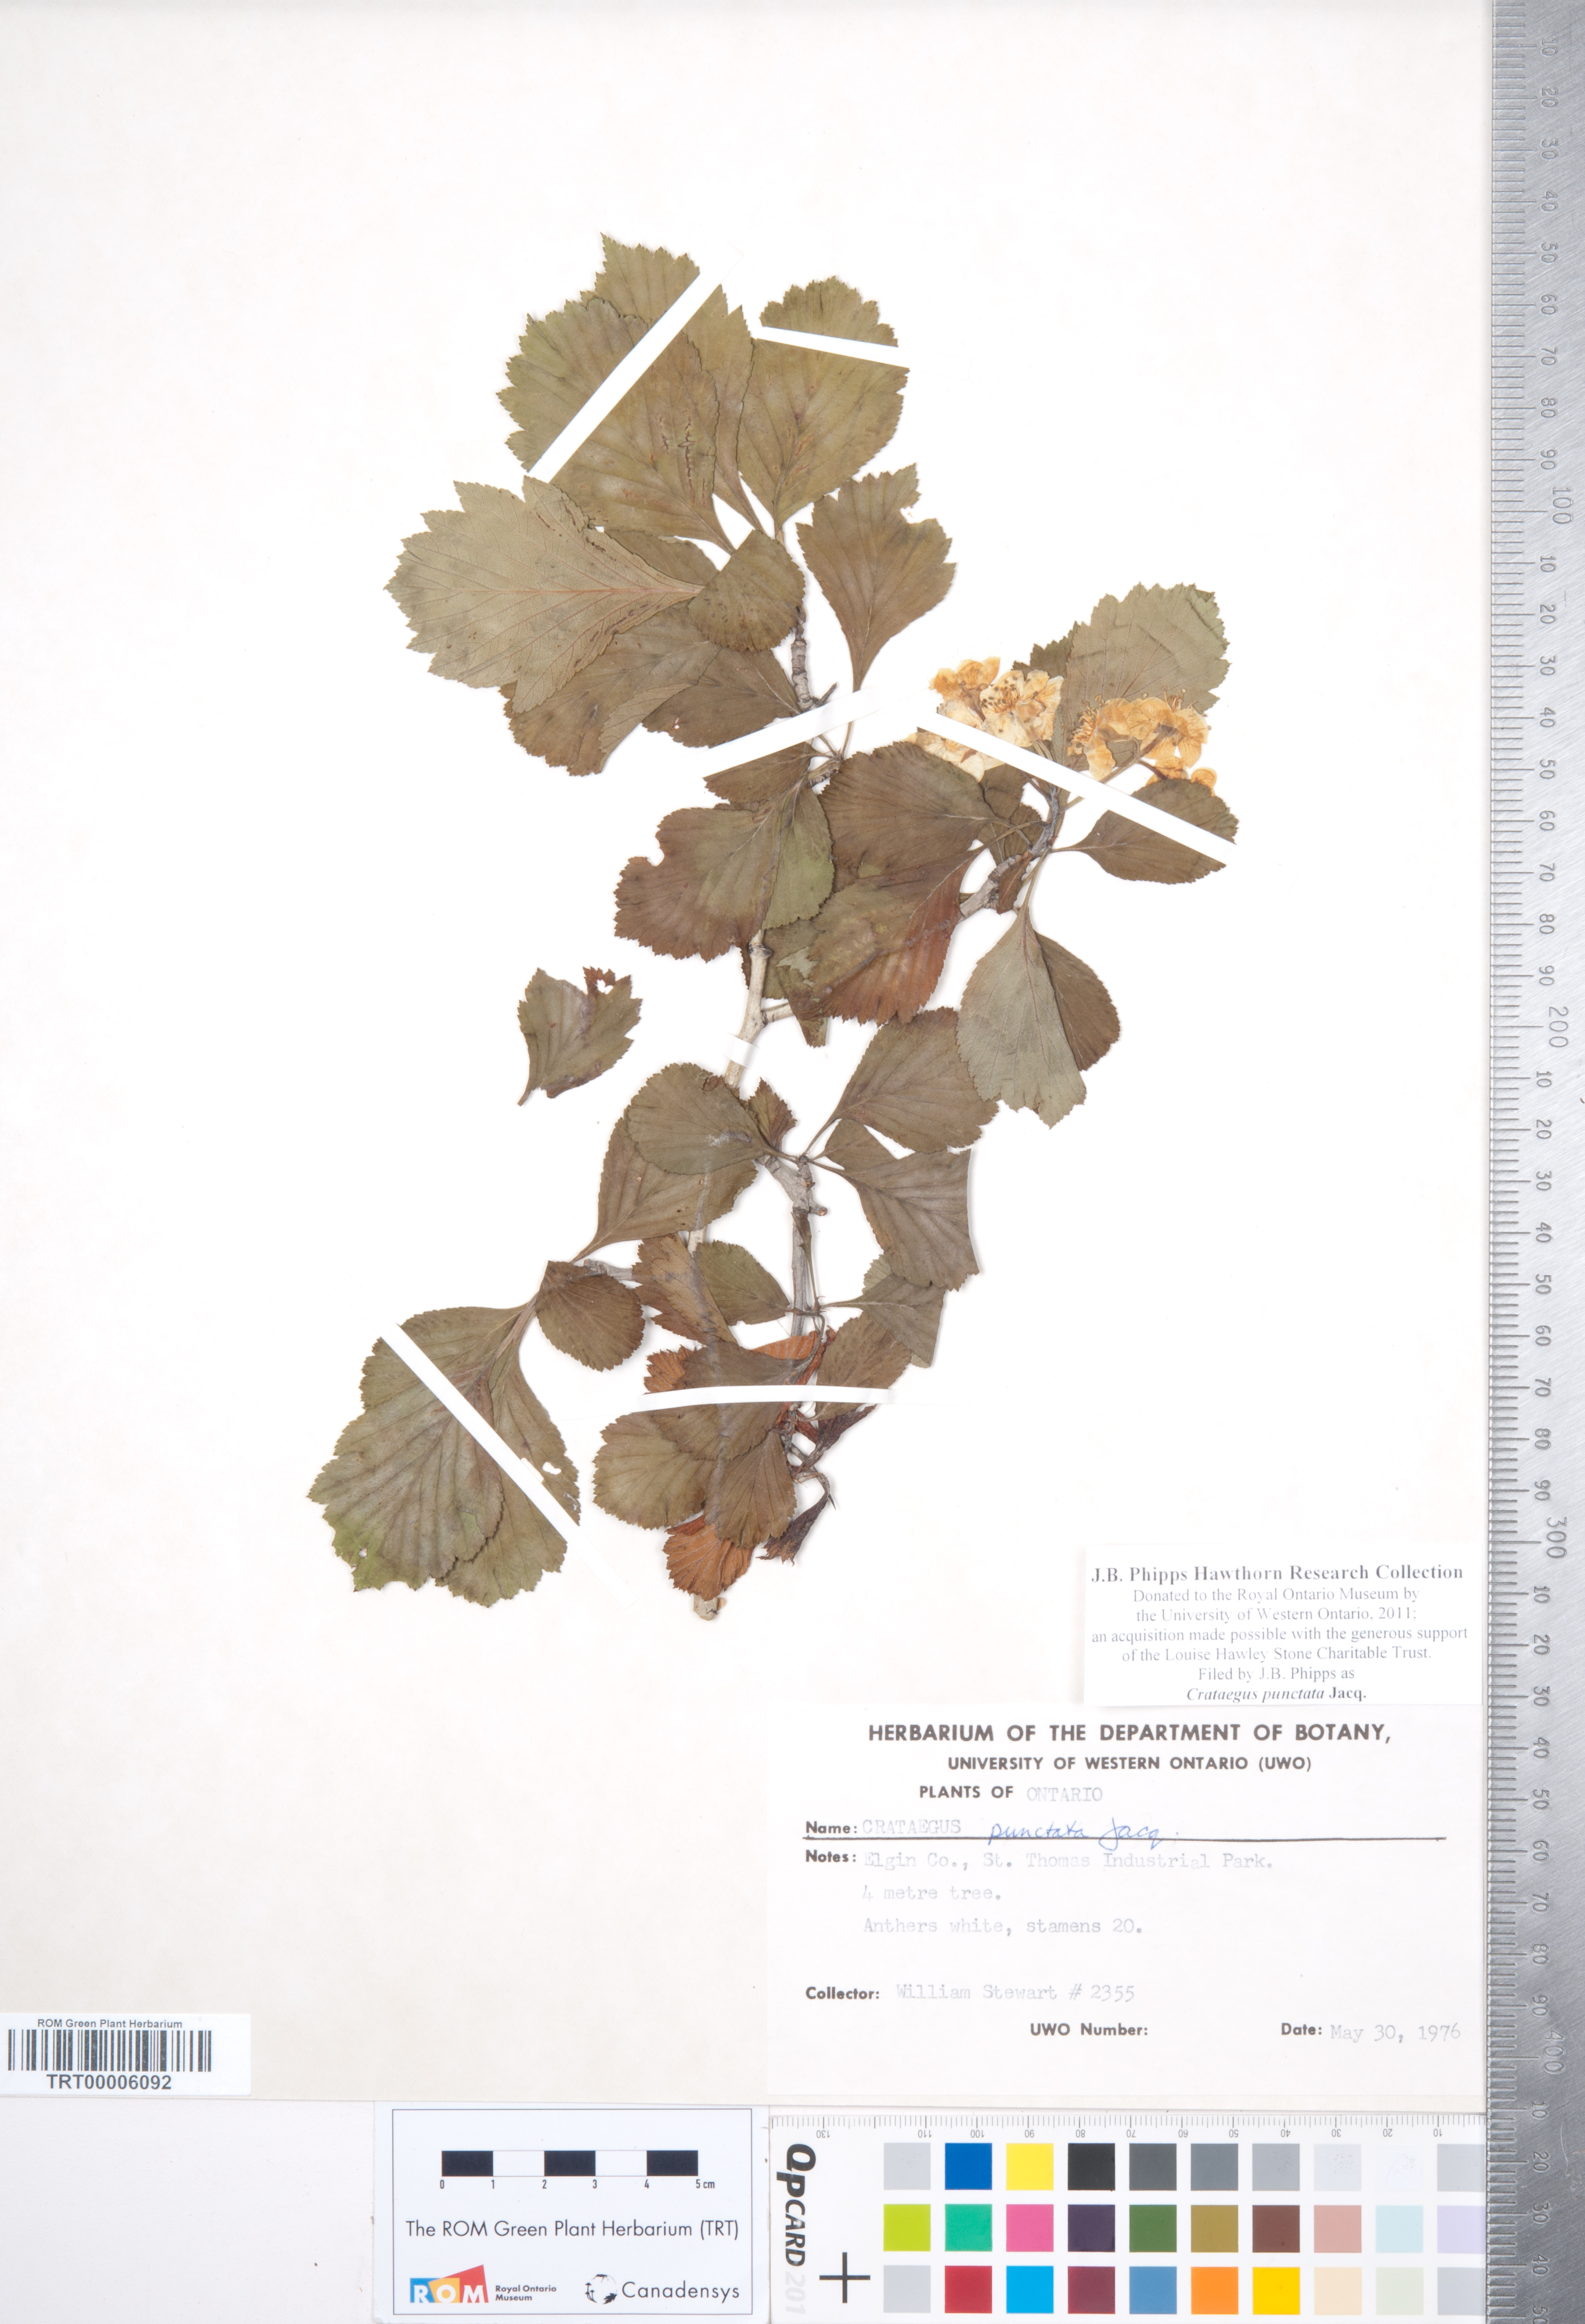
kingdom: Plantae
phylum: Tracheophyta
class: Magnoliopsida
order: Rosales
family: Rosaceae
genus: Crataegus
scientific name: Crataegus punctata
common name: Dotted hawthorn
